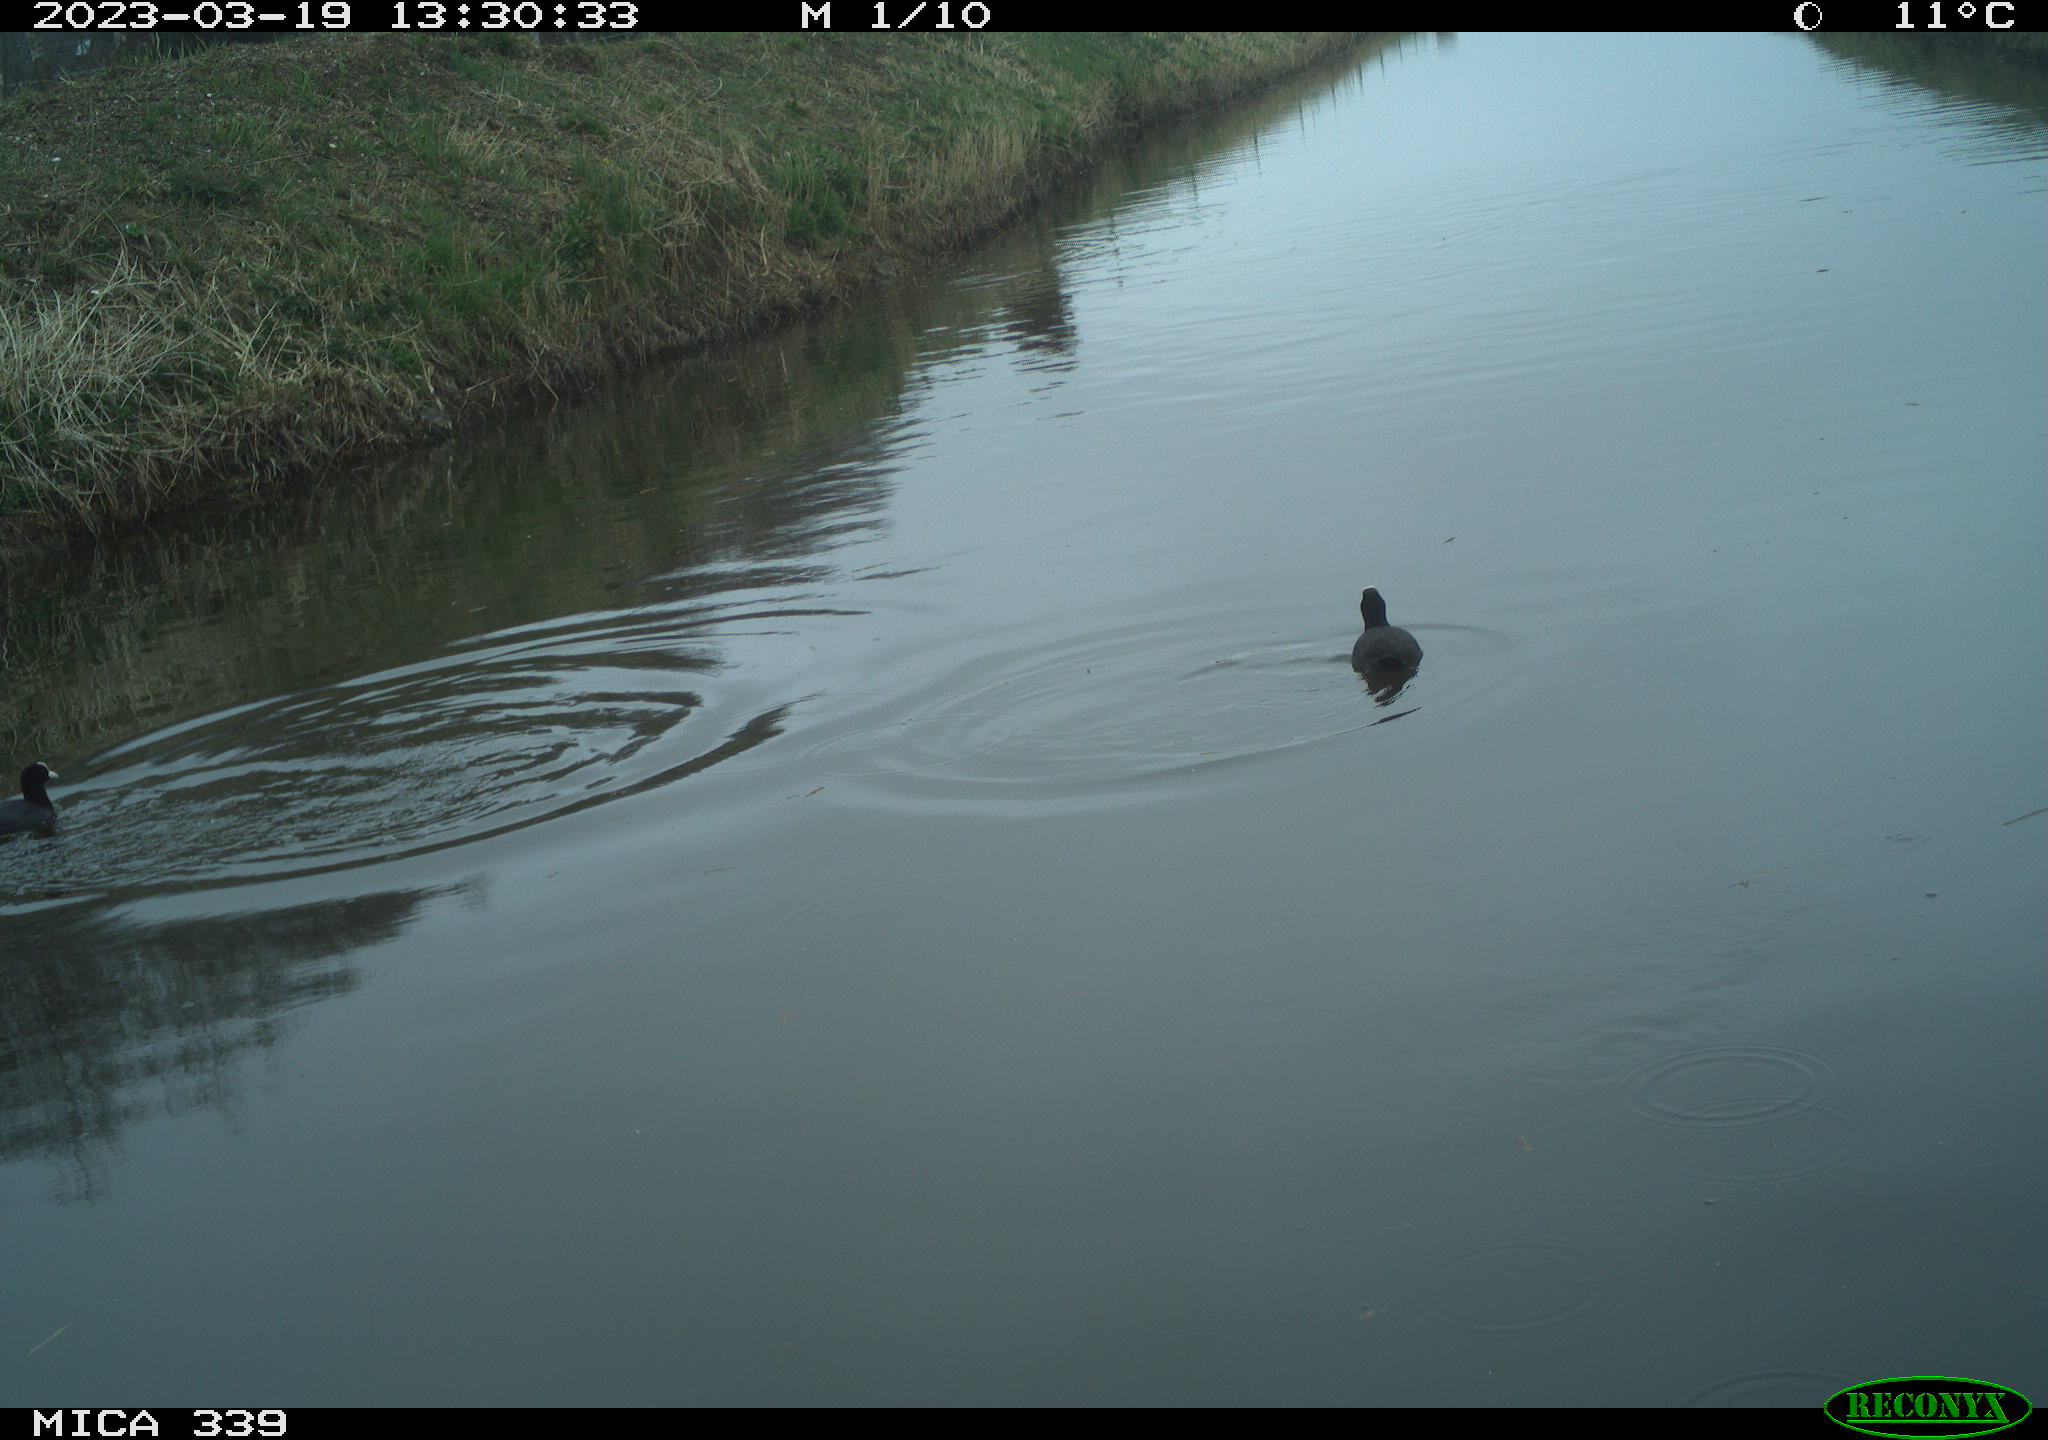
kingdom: Animalia
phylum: Chordata
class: Aves
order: Anseriformes
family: Anatidae
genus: Anas
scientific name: Anas
